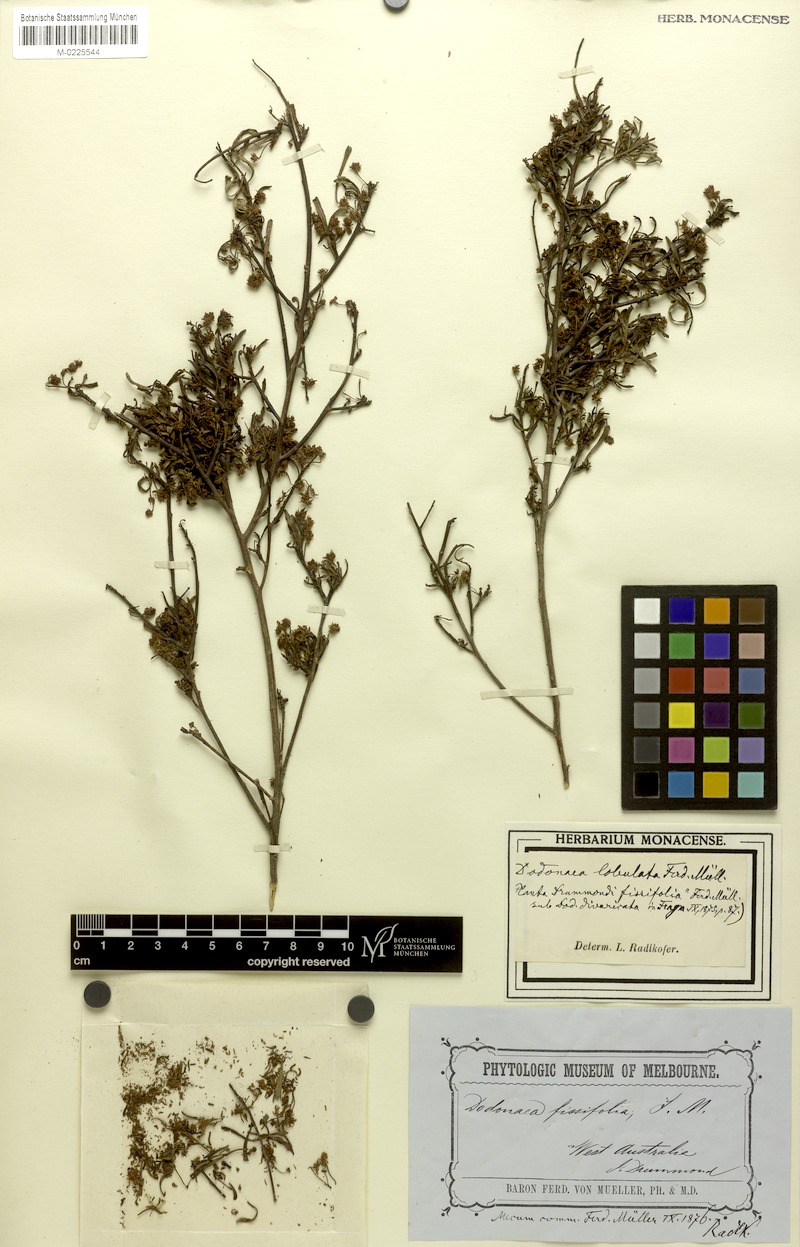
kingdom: Plantae
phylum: Tracheophyta
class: Magnoliopsida
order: Sapindales
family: Sapindaceae
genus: Dodonaea
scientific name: Dodonaea lobulata
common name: Lobe-leaf hopbush
